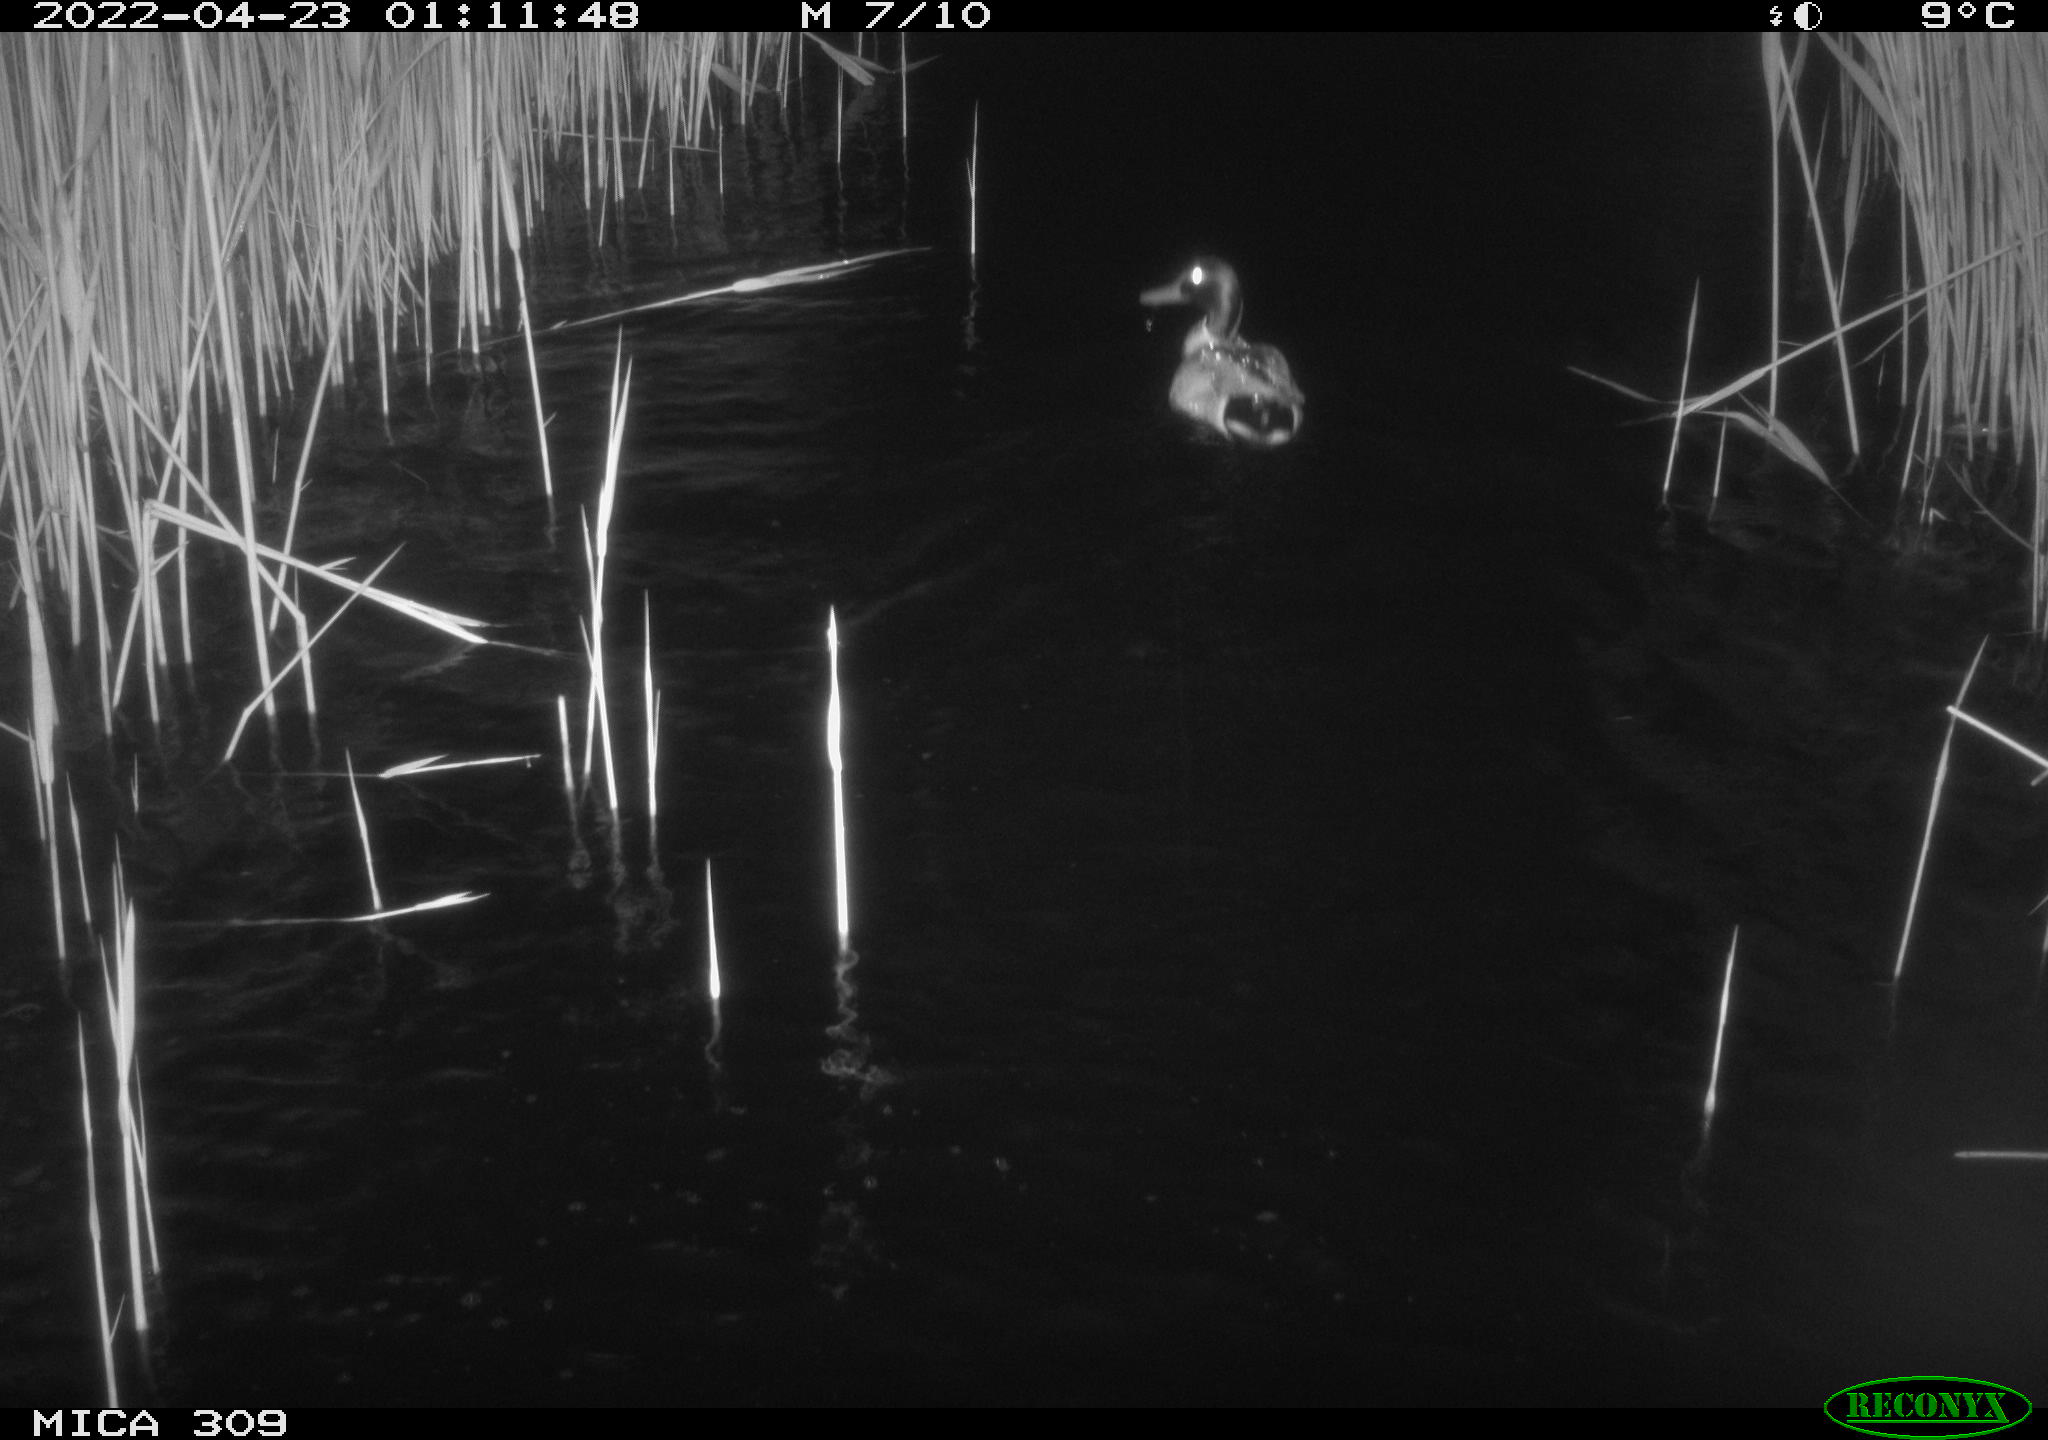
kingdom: Animalia
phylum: Chordata
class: Aves
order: Anseriformes
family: Anatidae
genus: Anas
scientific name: Anas platyrhynchos
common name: Mallard
